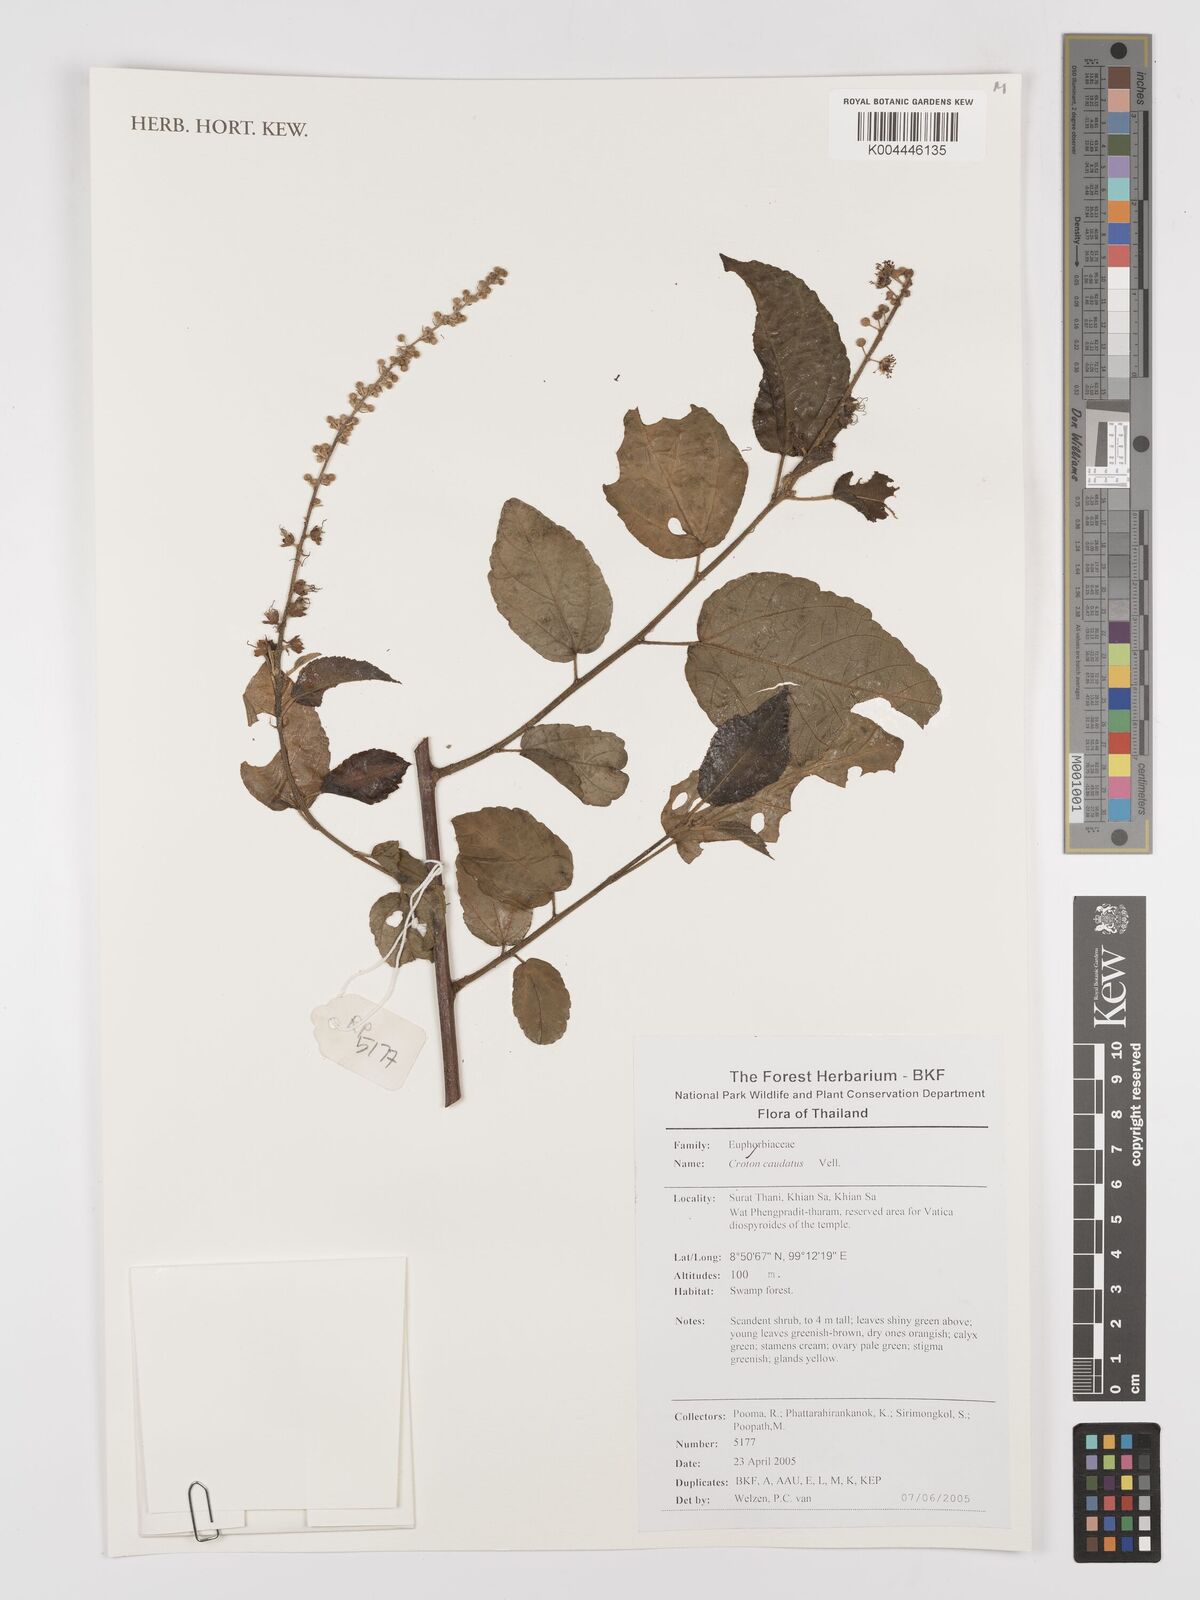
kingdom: Plantae
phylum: Tracheophyta
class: Magnoliopsida
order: Malpighiales
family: Euphorbiaceae
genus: Croton
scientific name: Croton caudatus
